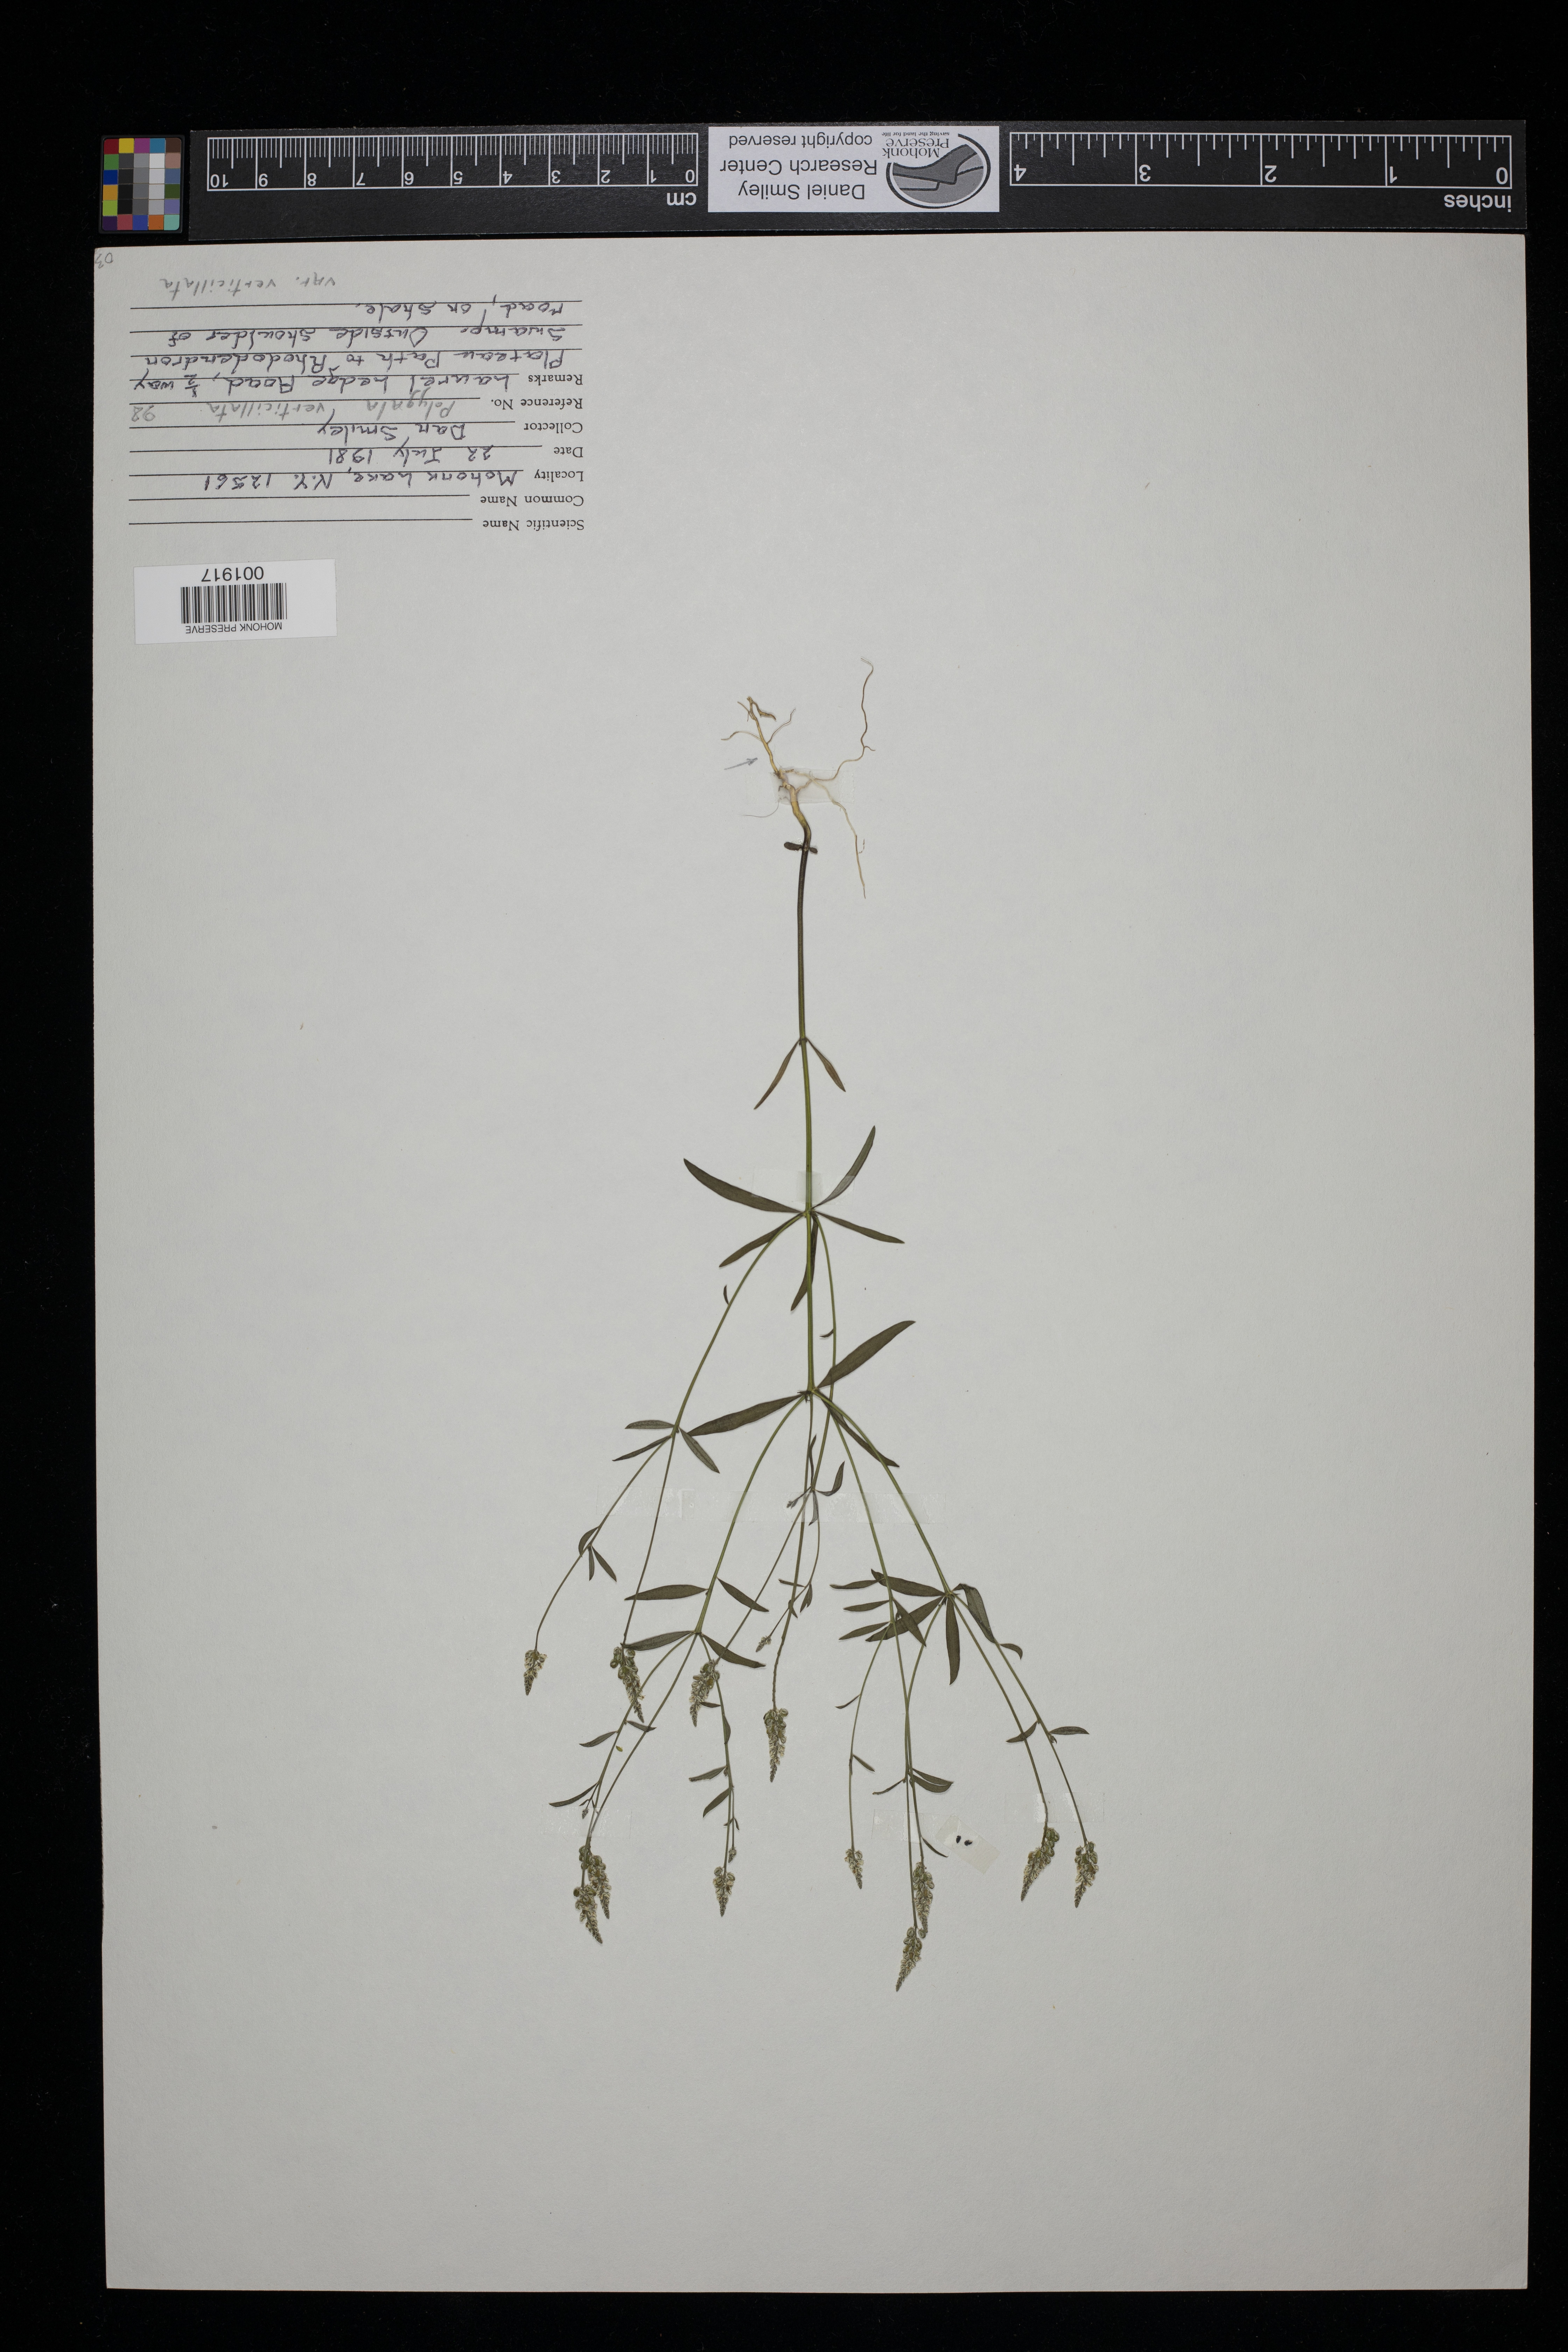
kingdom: Plantae
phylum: Tracheophyta
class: Magnoliopsida
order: Fabales
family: Polygalaceae
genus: Polygala
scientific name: Polygala verticillata
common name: Whorl milkwort
